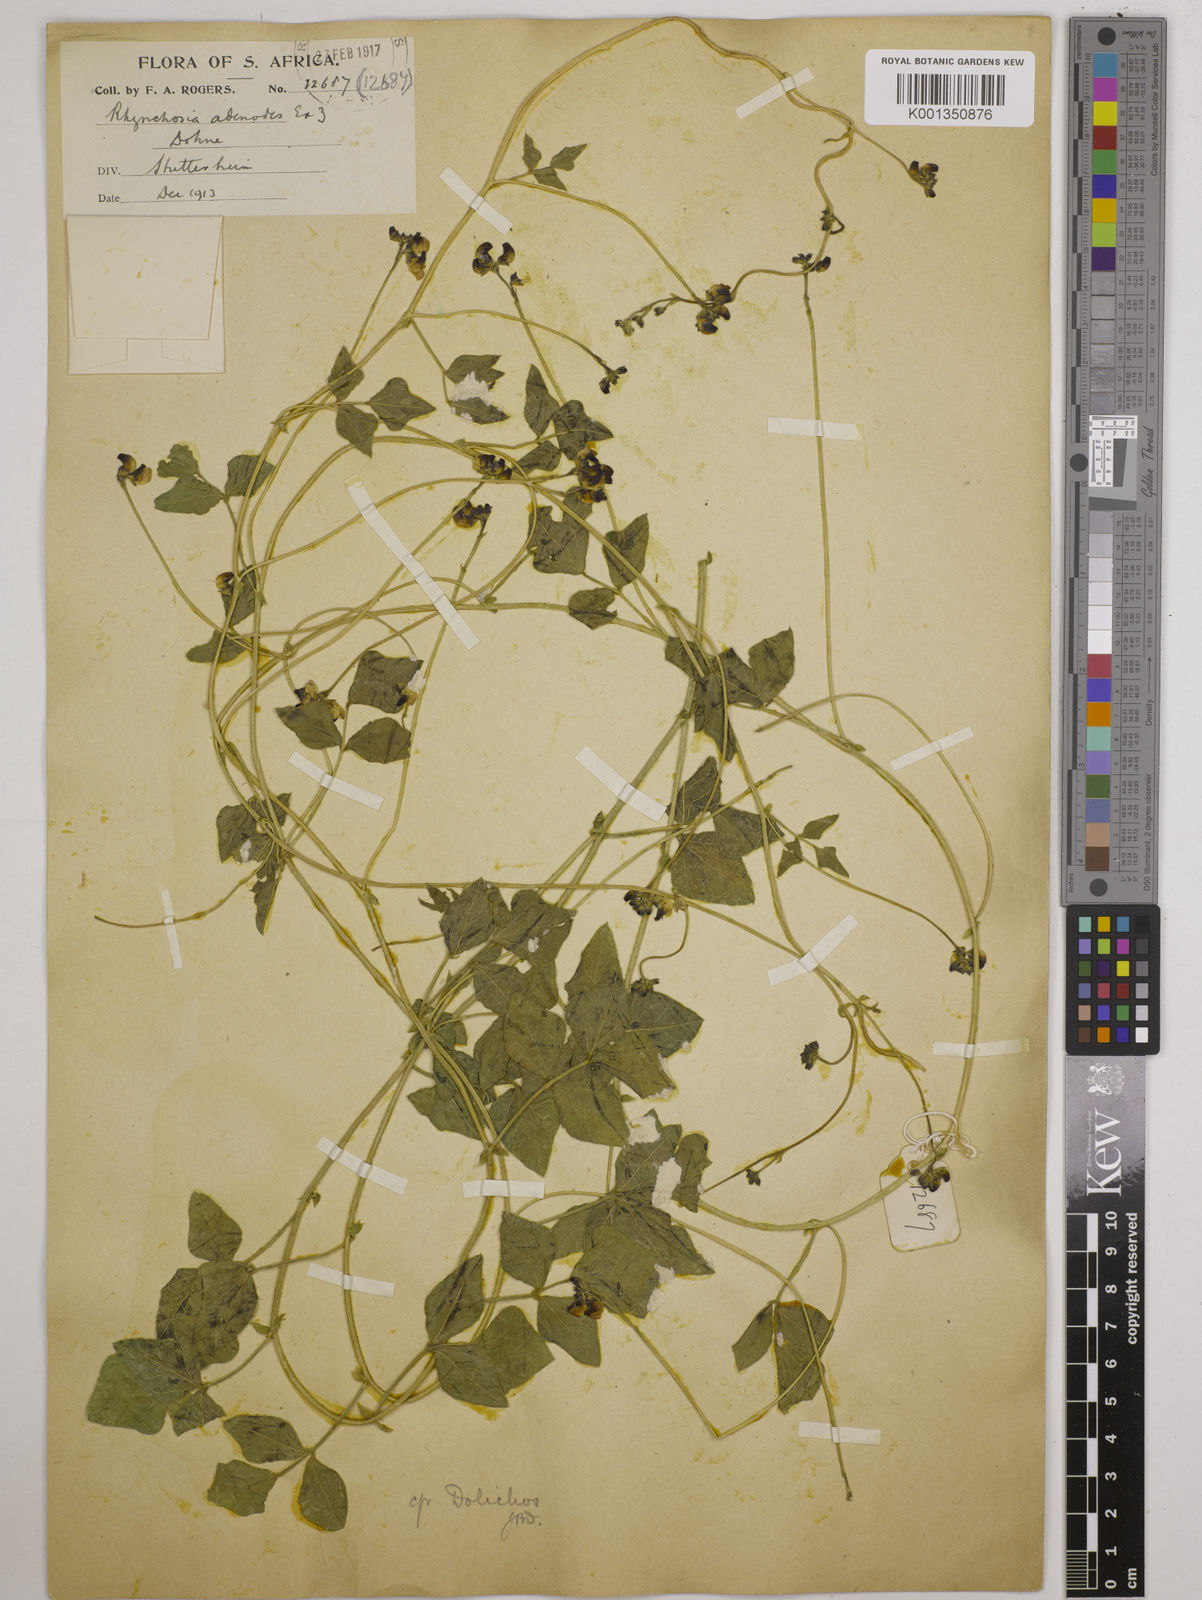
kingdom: Plantae
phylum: Tracheophyta
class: Magnoliopsida
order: Fabales
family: Fabaceae
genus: Dolichos
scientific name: Dolichos falciformis
